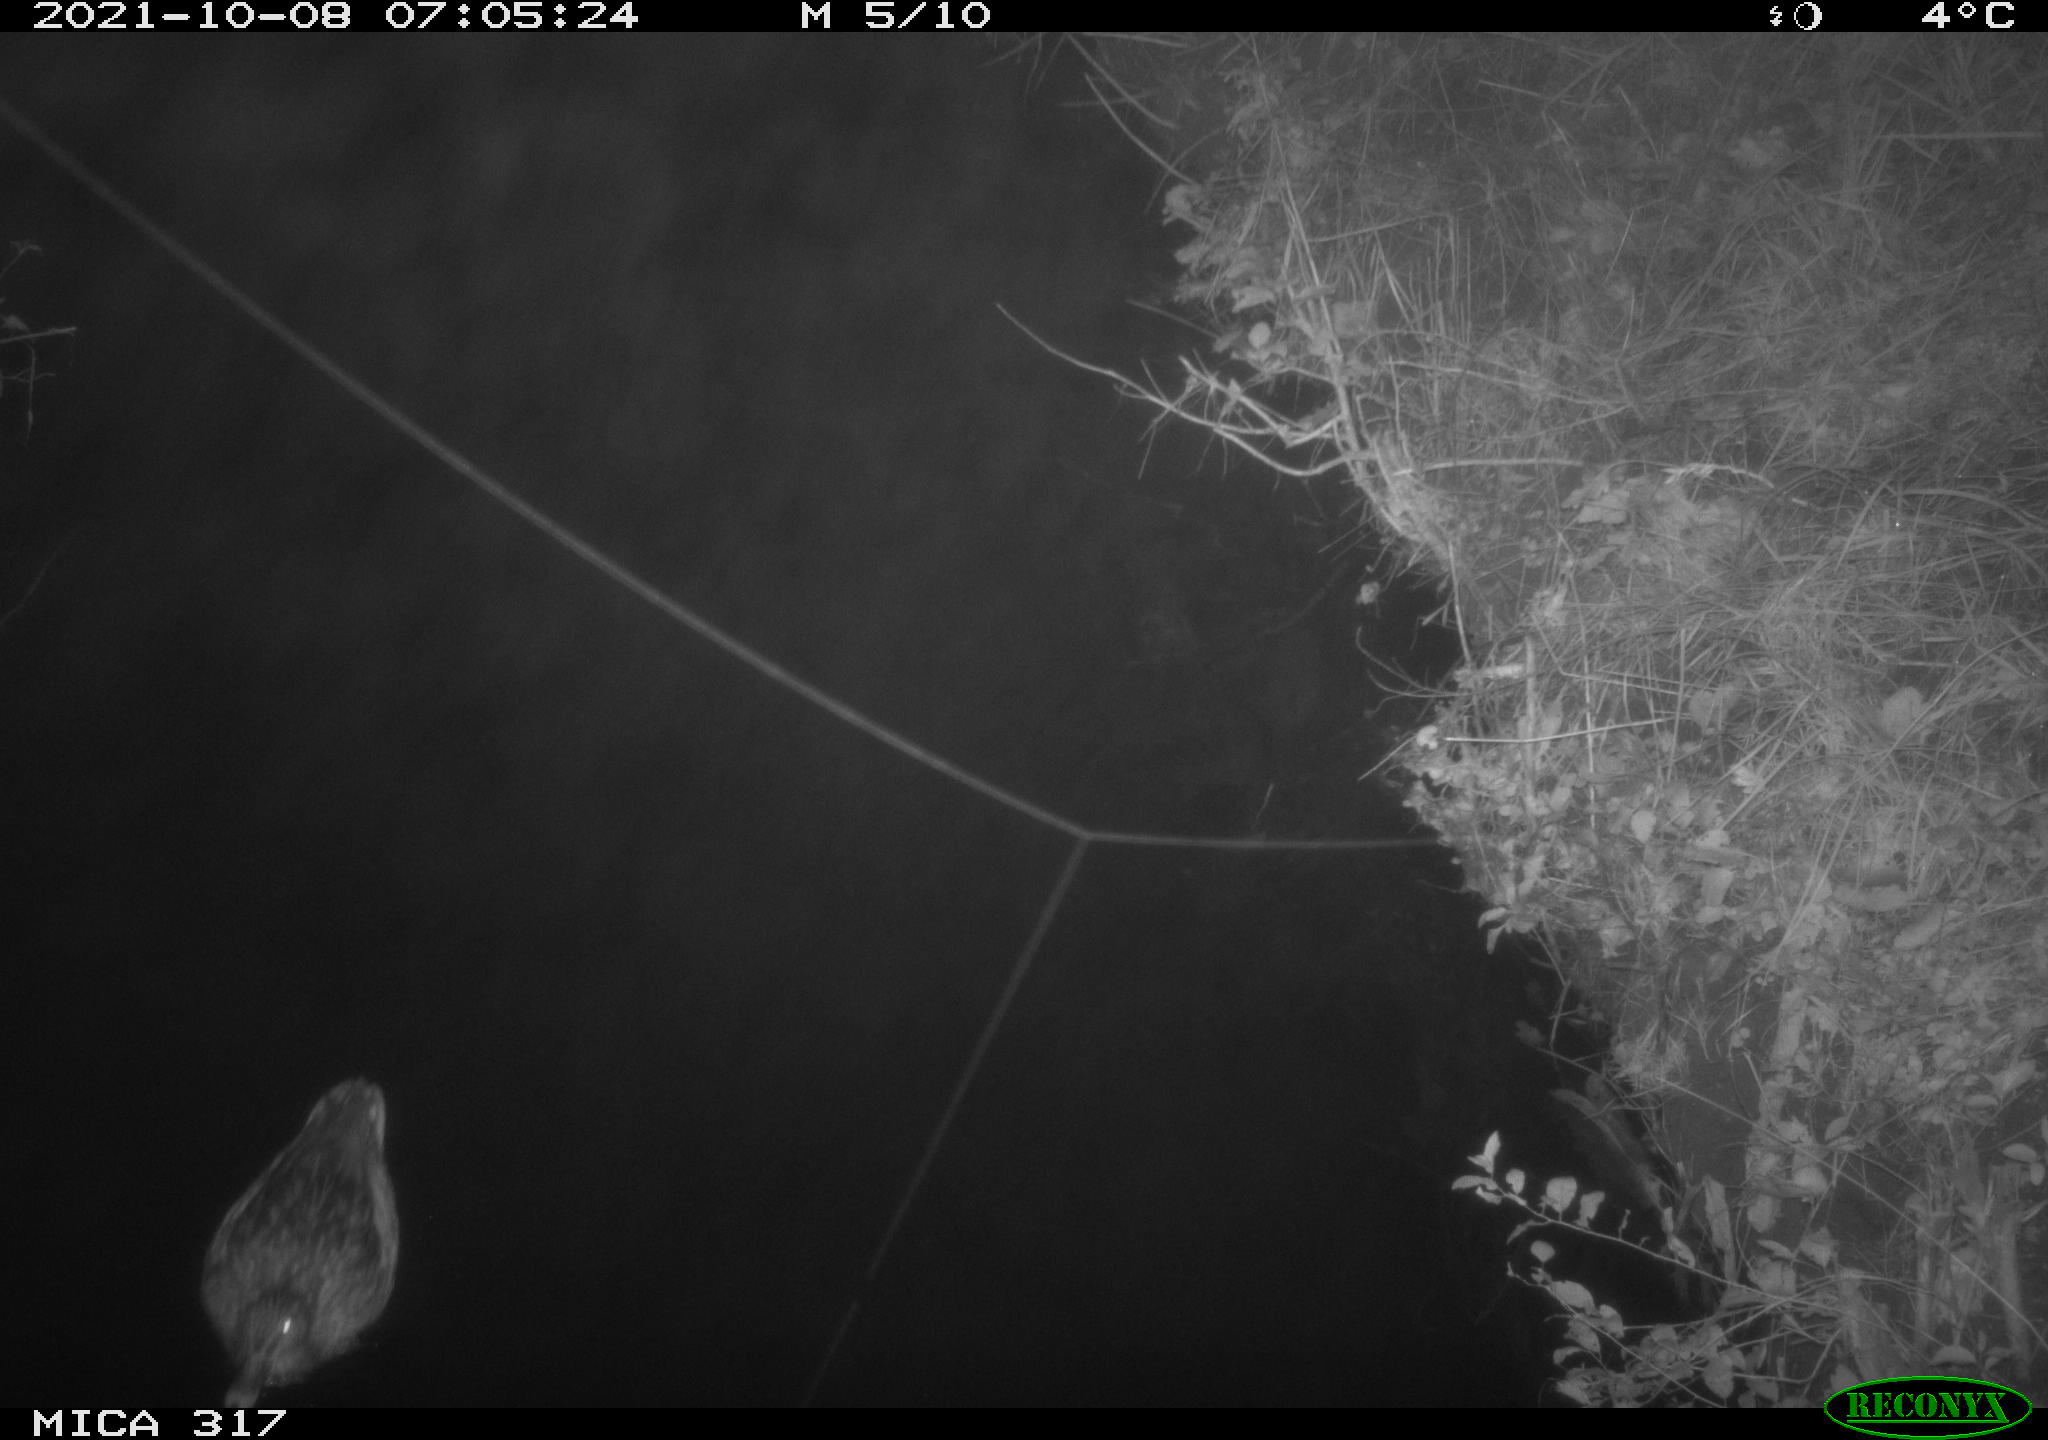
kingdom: Animalia
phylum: Chordata
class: Aves
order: Anseriformes
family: Anatidae
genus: Anas
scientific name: Anas platyrhynchos
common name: Mallard
